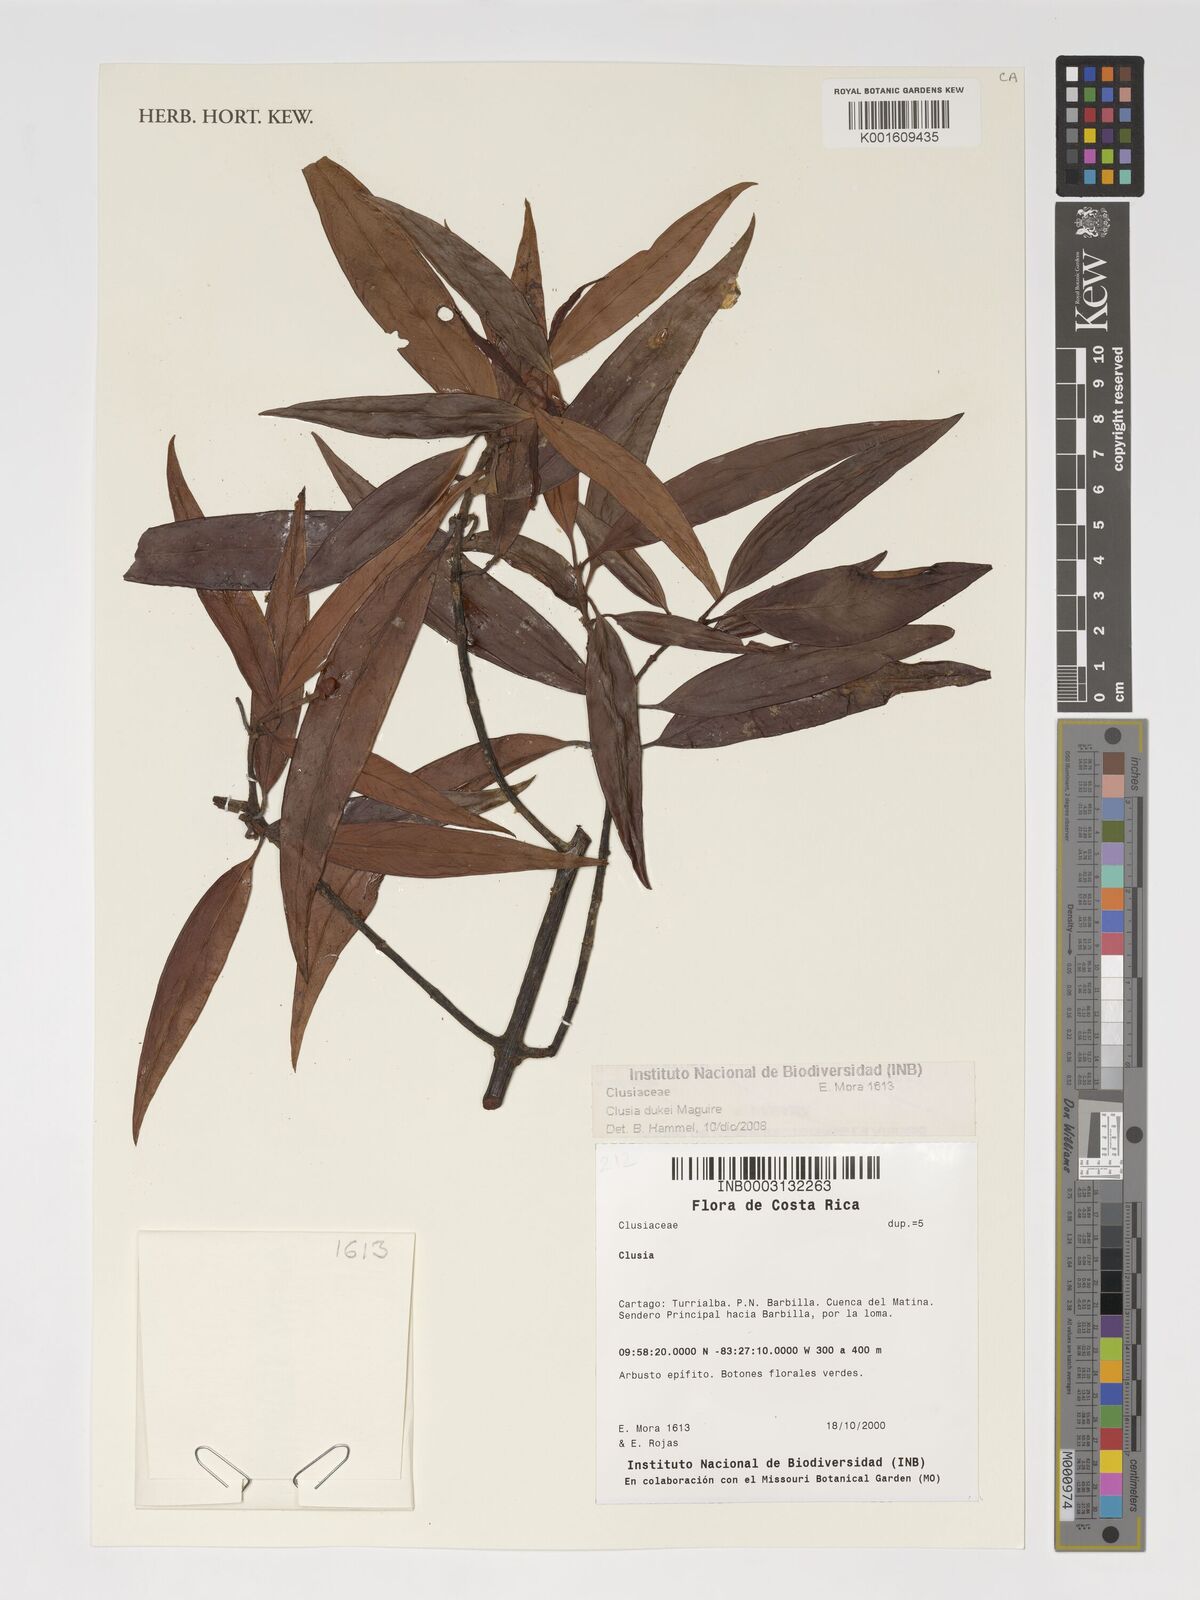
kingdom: Plantae
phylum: Tracheophyta
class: Magnoliopsida
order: Malpighiales
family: Clusiaceae
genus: Clusia
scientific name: Clusia dukei
